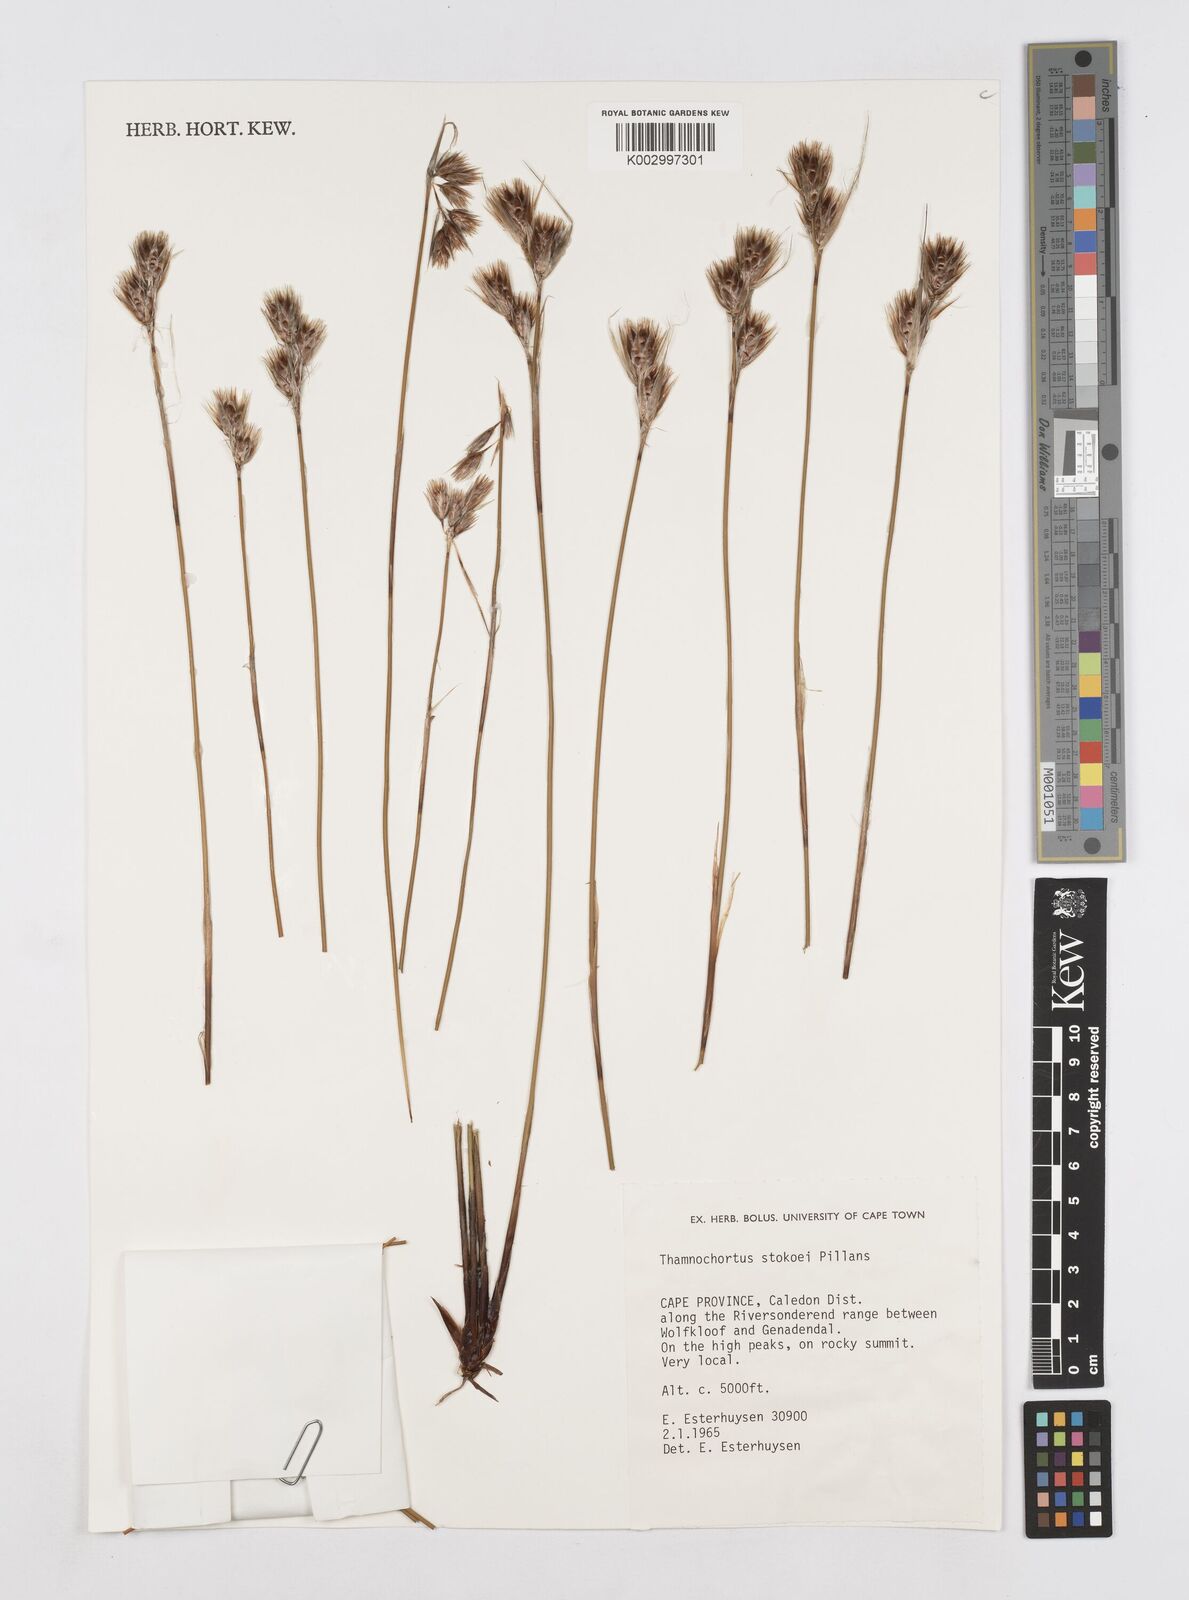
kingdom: Plantae
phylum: Tracheophyta
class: Liliopsida
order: Poales
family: Restionaceae
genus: Thamnochortus
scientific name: Thamnochortus stokoei
